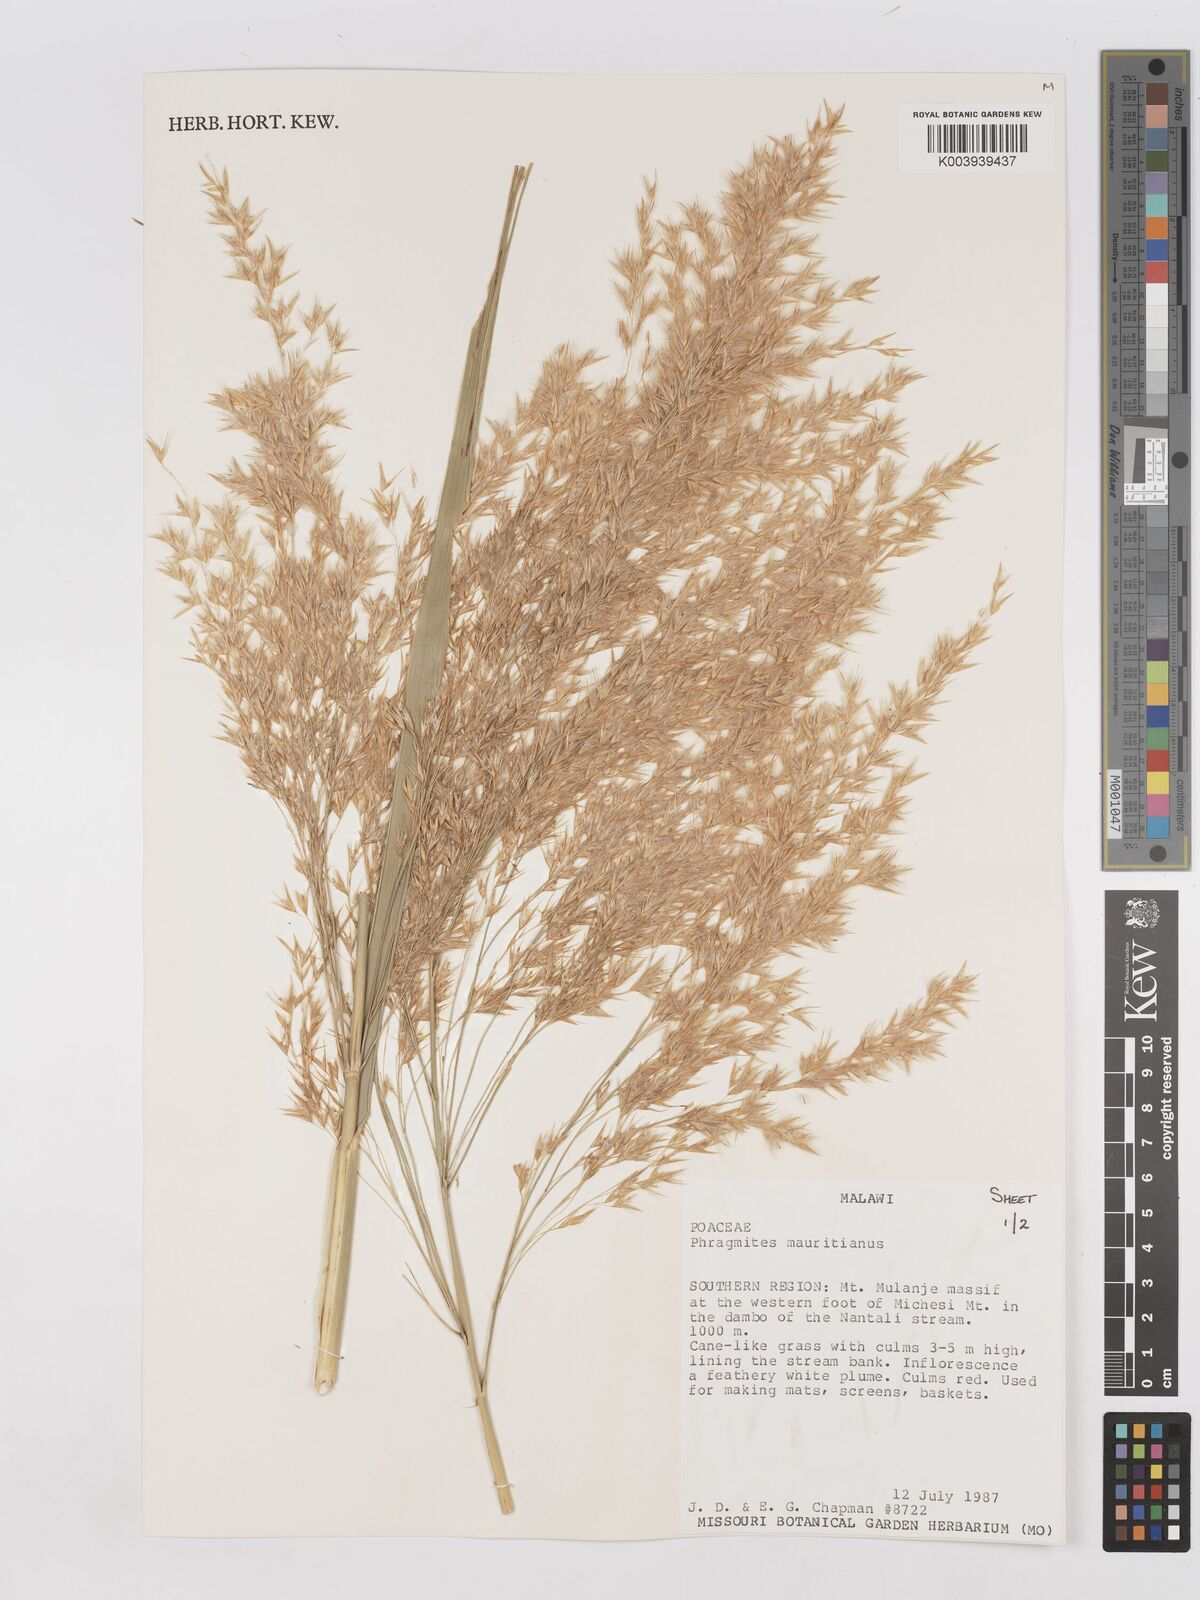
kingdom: Plantae
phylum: Tracheophyta
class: Liliopsida
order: Poales
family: Poaceae
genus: Phragmites
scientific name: Phragmites mauritianus
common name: Reed grass
